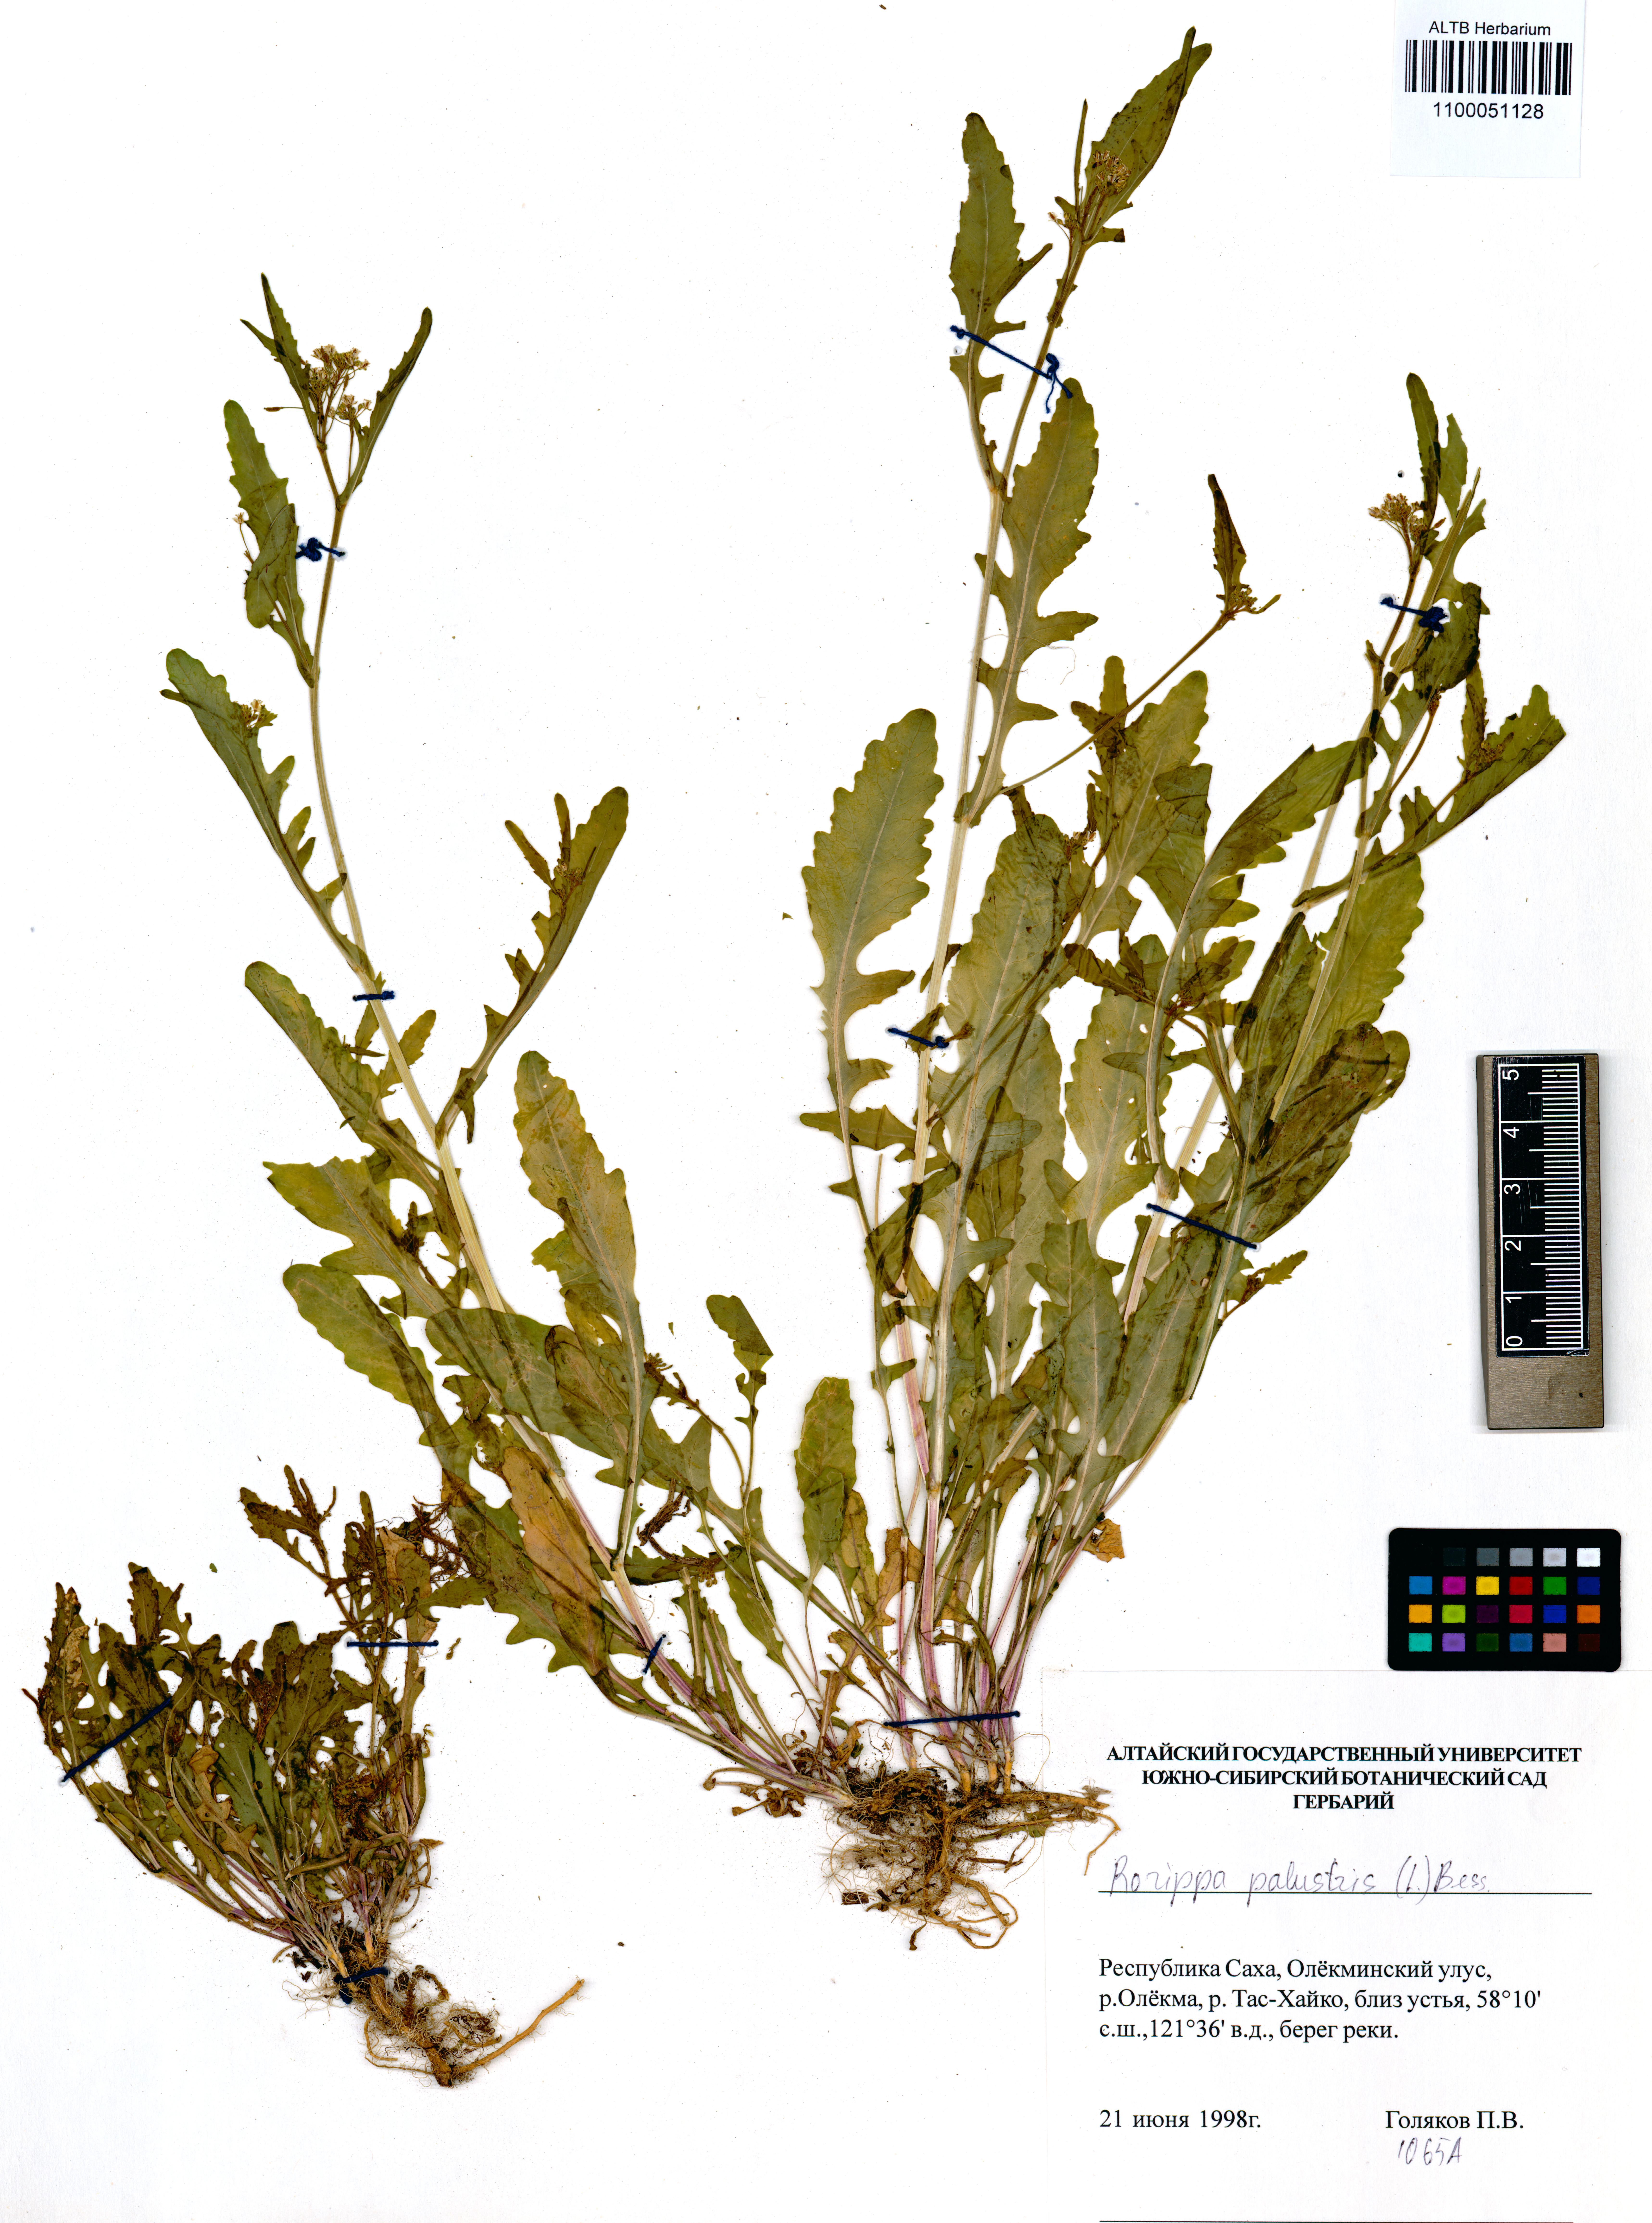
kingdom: Plantae
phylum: Tracheophyta
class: Magnoliopsida
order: Brassicales
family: Brassicaceae
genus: Rorippa
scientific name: Rorippa palustris
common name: Marsh yellow-cress
